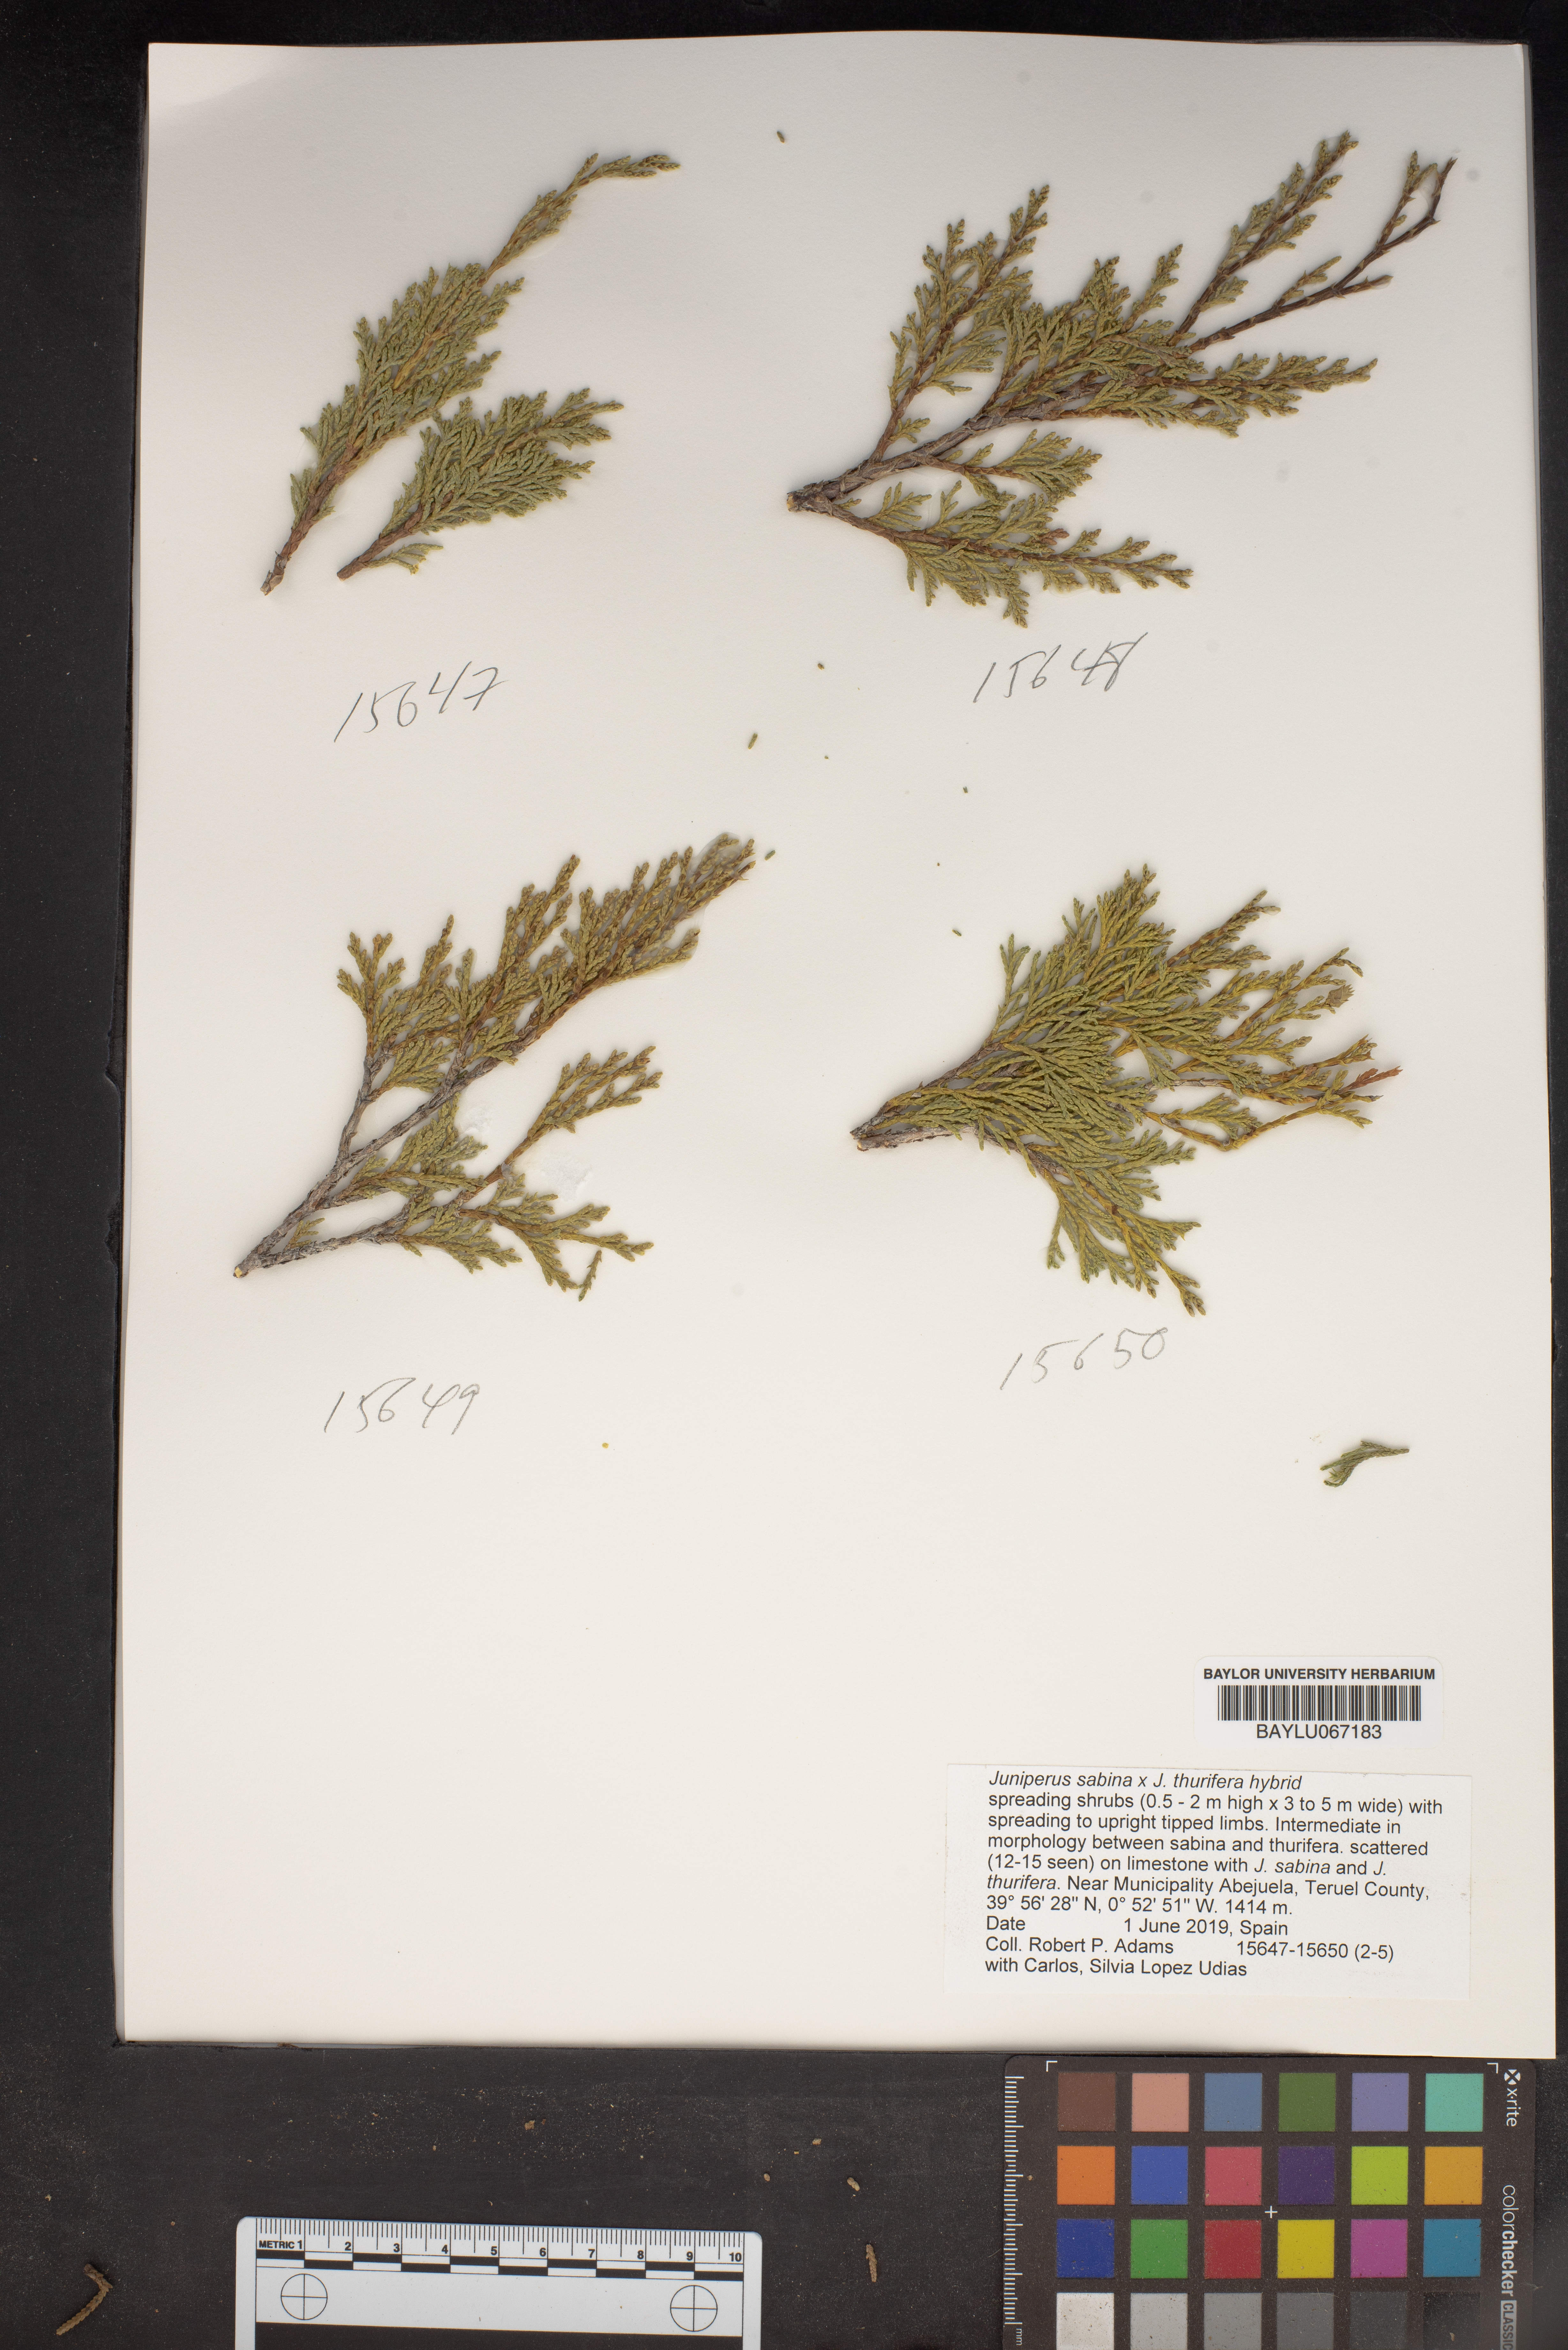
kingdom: Plantae
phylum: Tracheophyta
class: Pinopsida
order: Pinales
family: Cupressaceae
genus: Juniperus
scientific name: Juniperus sabina
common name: Savin
